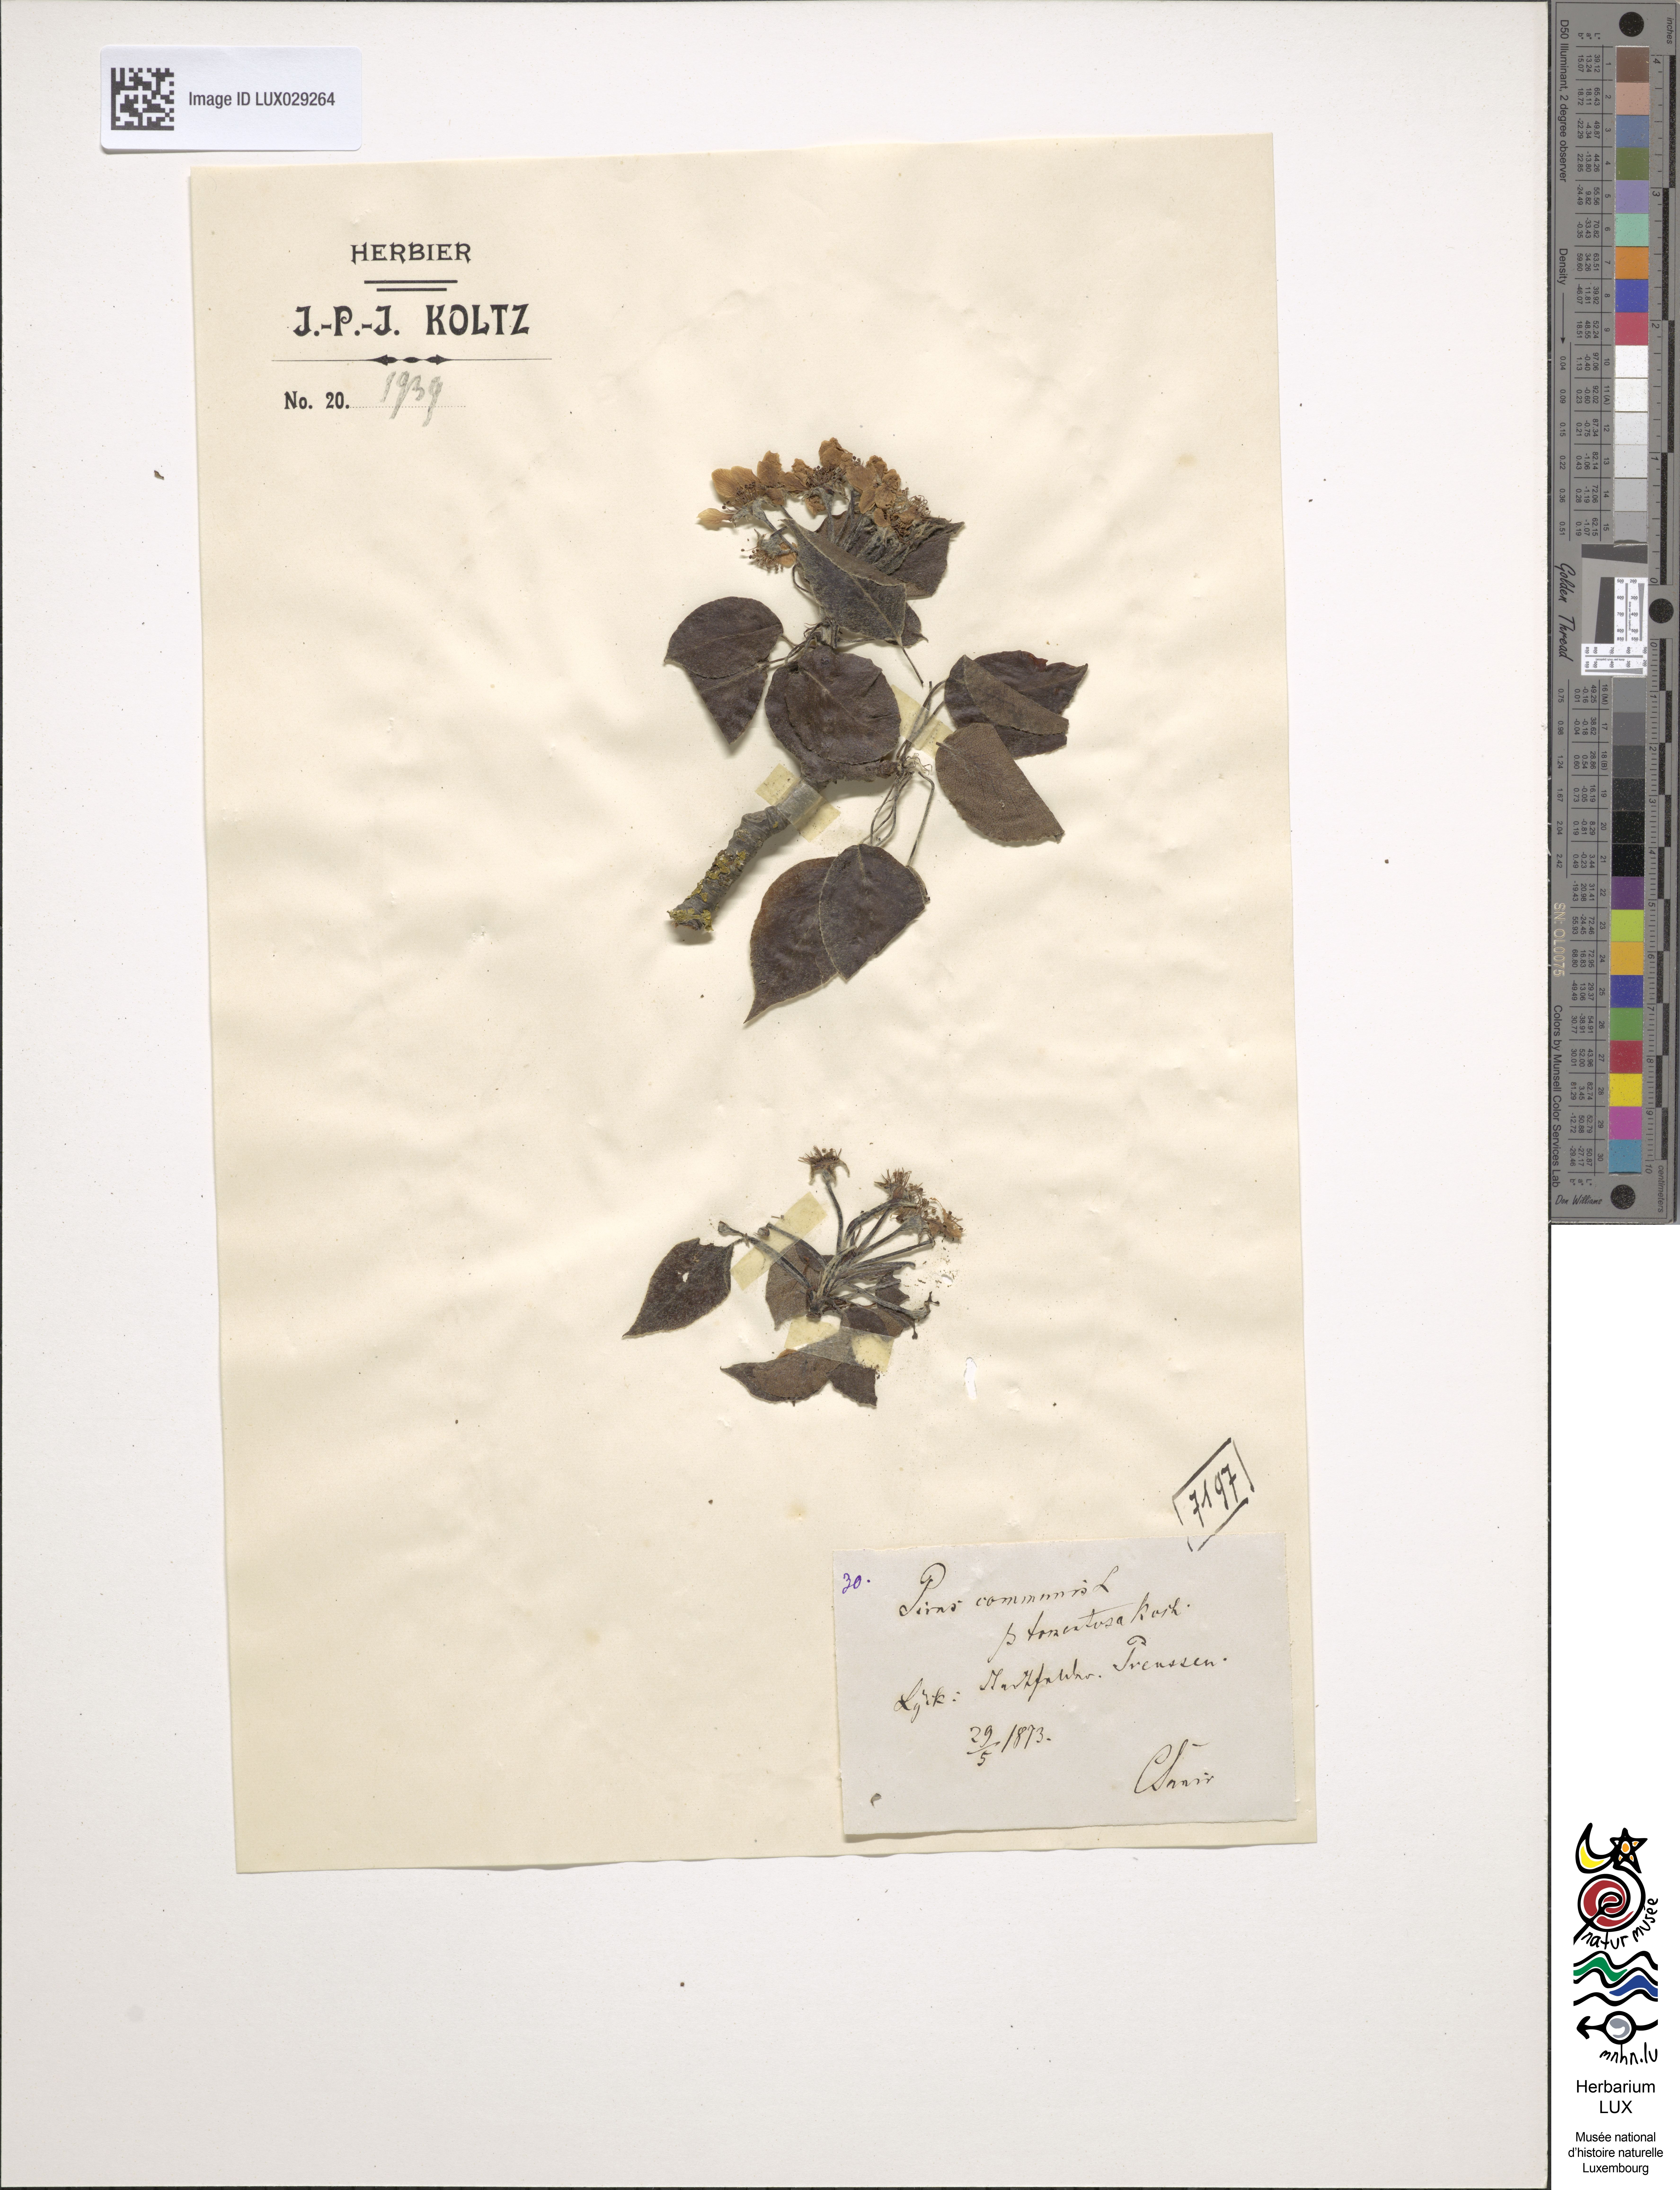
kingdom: Plantae
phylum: Tracheophyta
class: Magnoliopsida
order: Rosales
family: Rosaceae
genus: Pyrus
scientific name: Pyrus communis
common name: Pear
